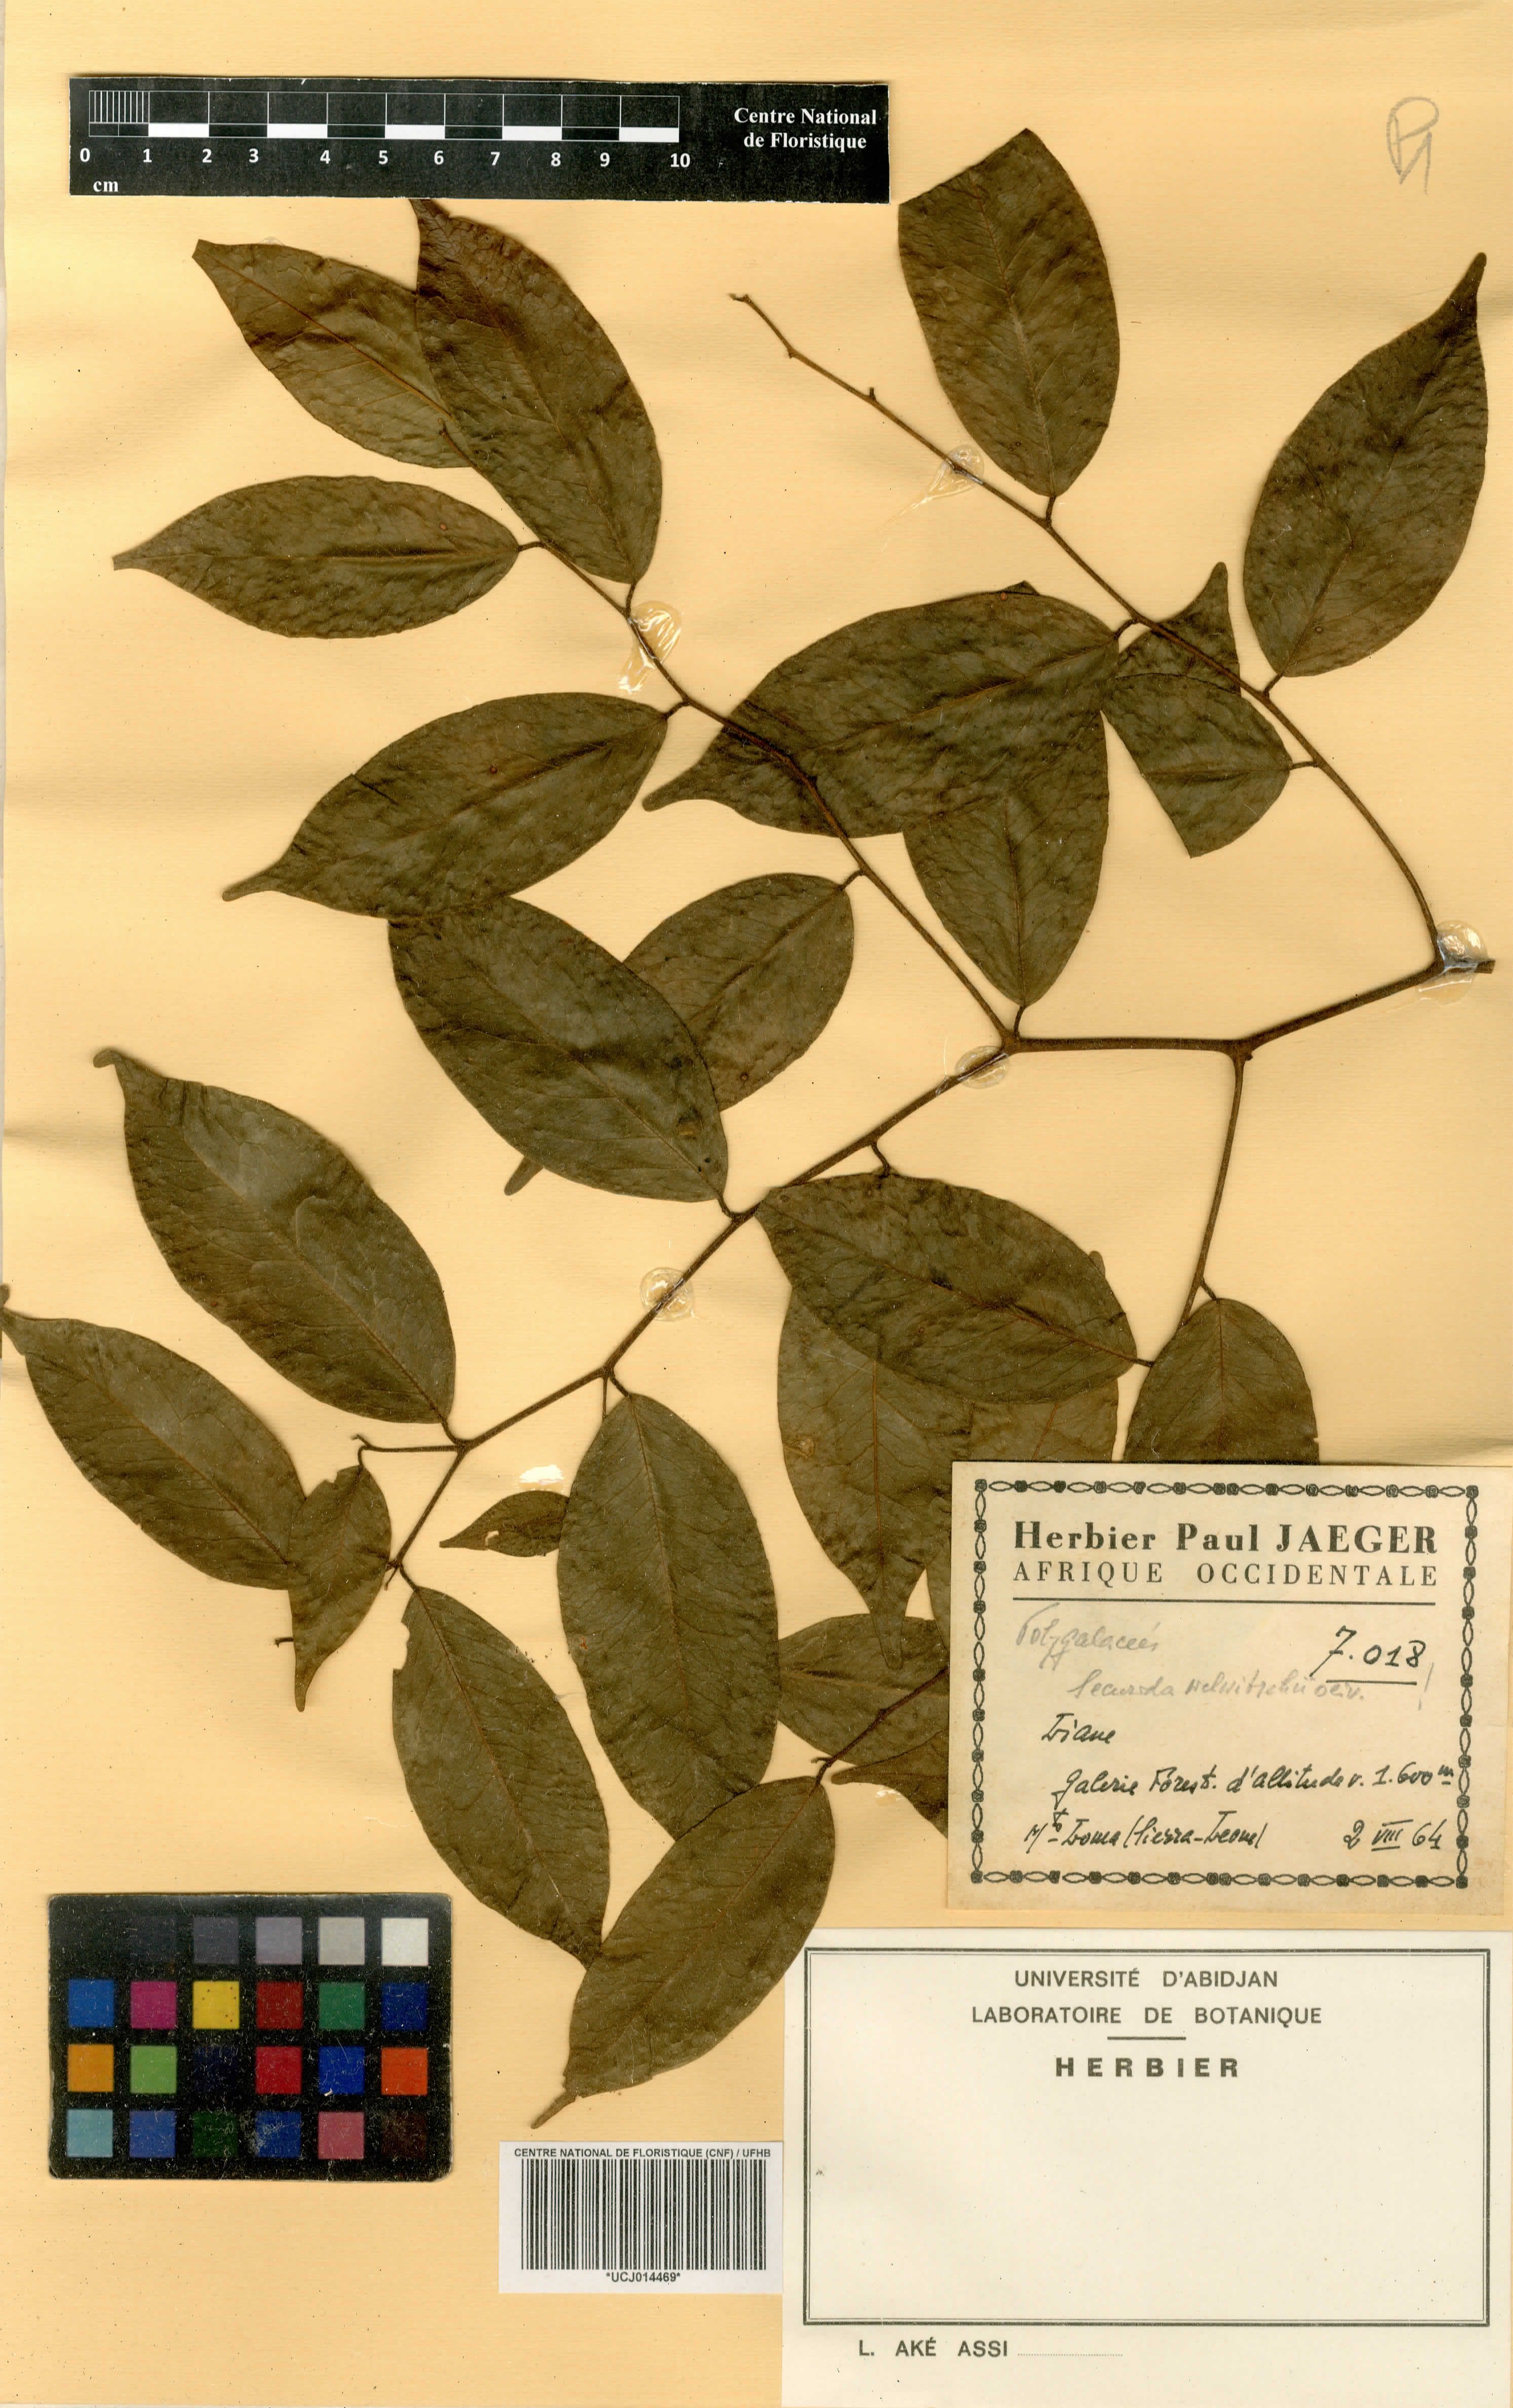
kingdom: Plantae
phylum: Tracheophyta
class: Magnoliopsida
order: Fabales
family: Polygalaceae
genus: Securidaca
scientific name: Securidaca welwitschii
